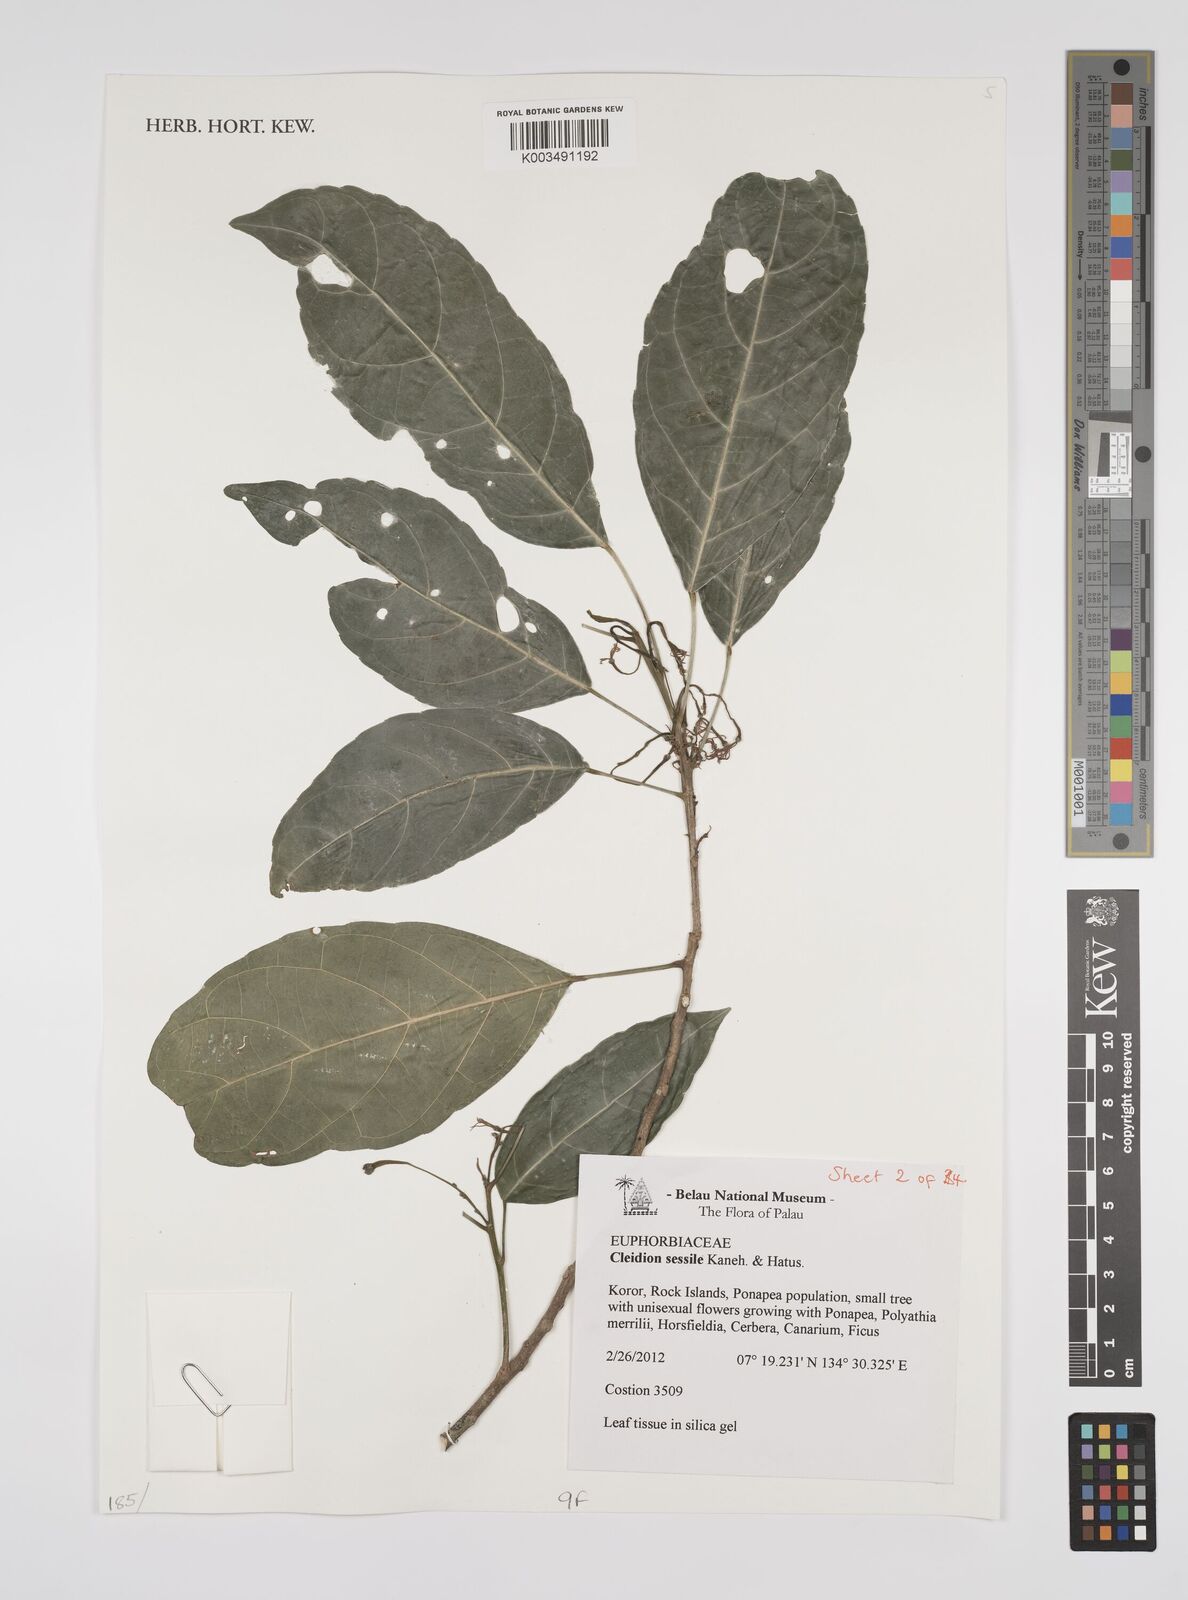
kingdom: Plantae
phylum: Tracheophyta
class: Magnoliopsida
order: Malpighiales
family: Euphorbiaceae
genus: Cleidion
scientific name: Cleidion sessile
